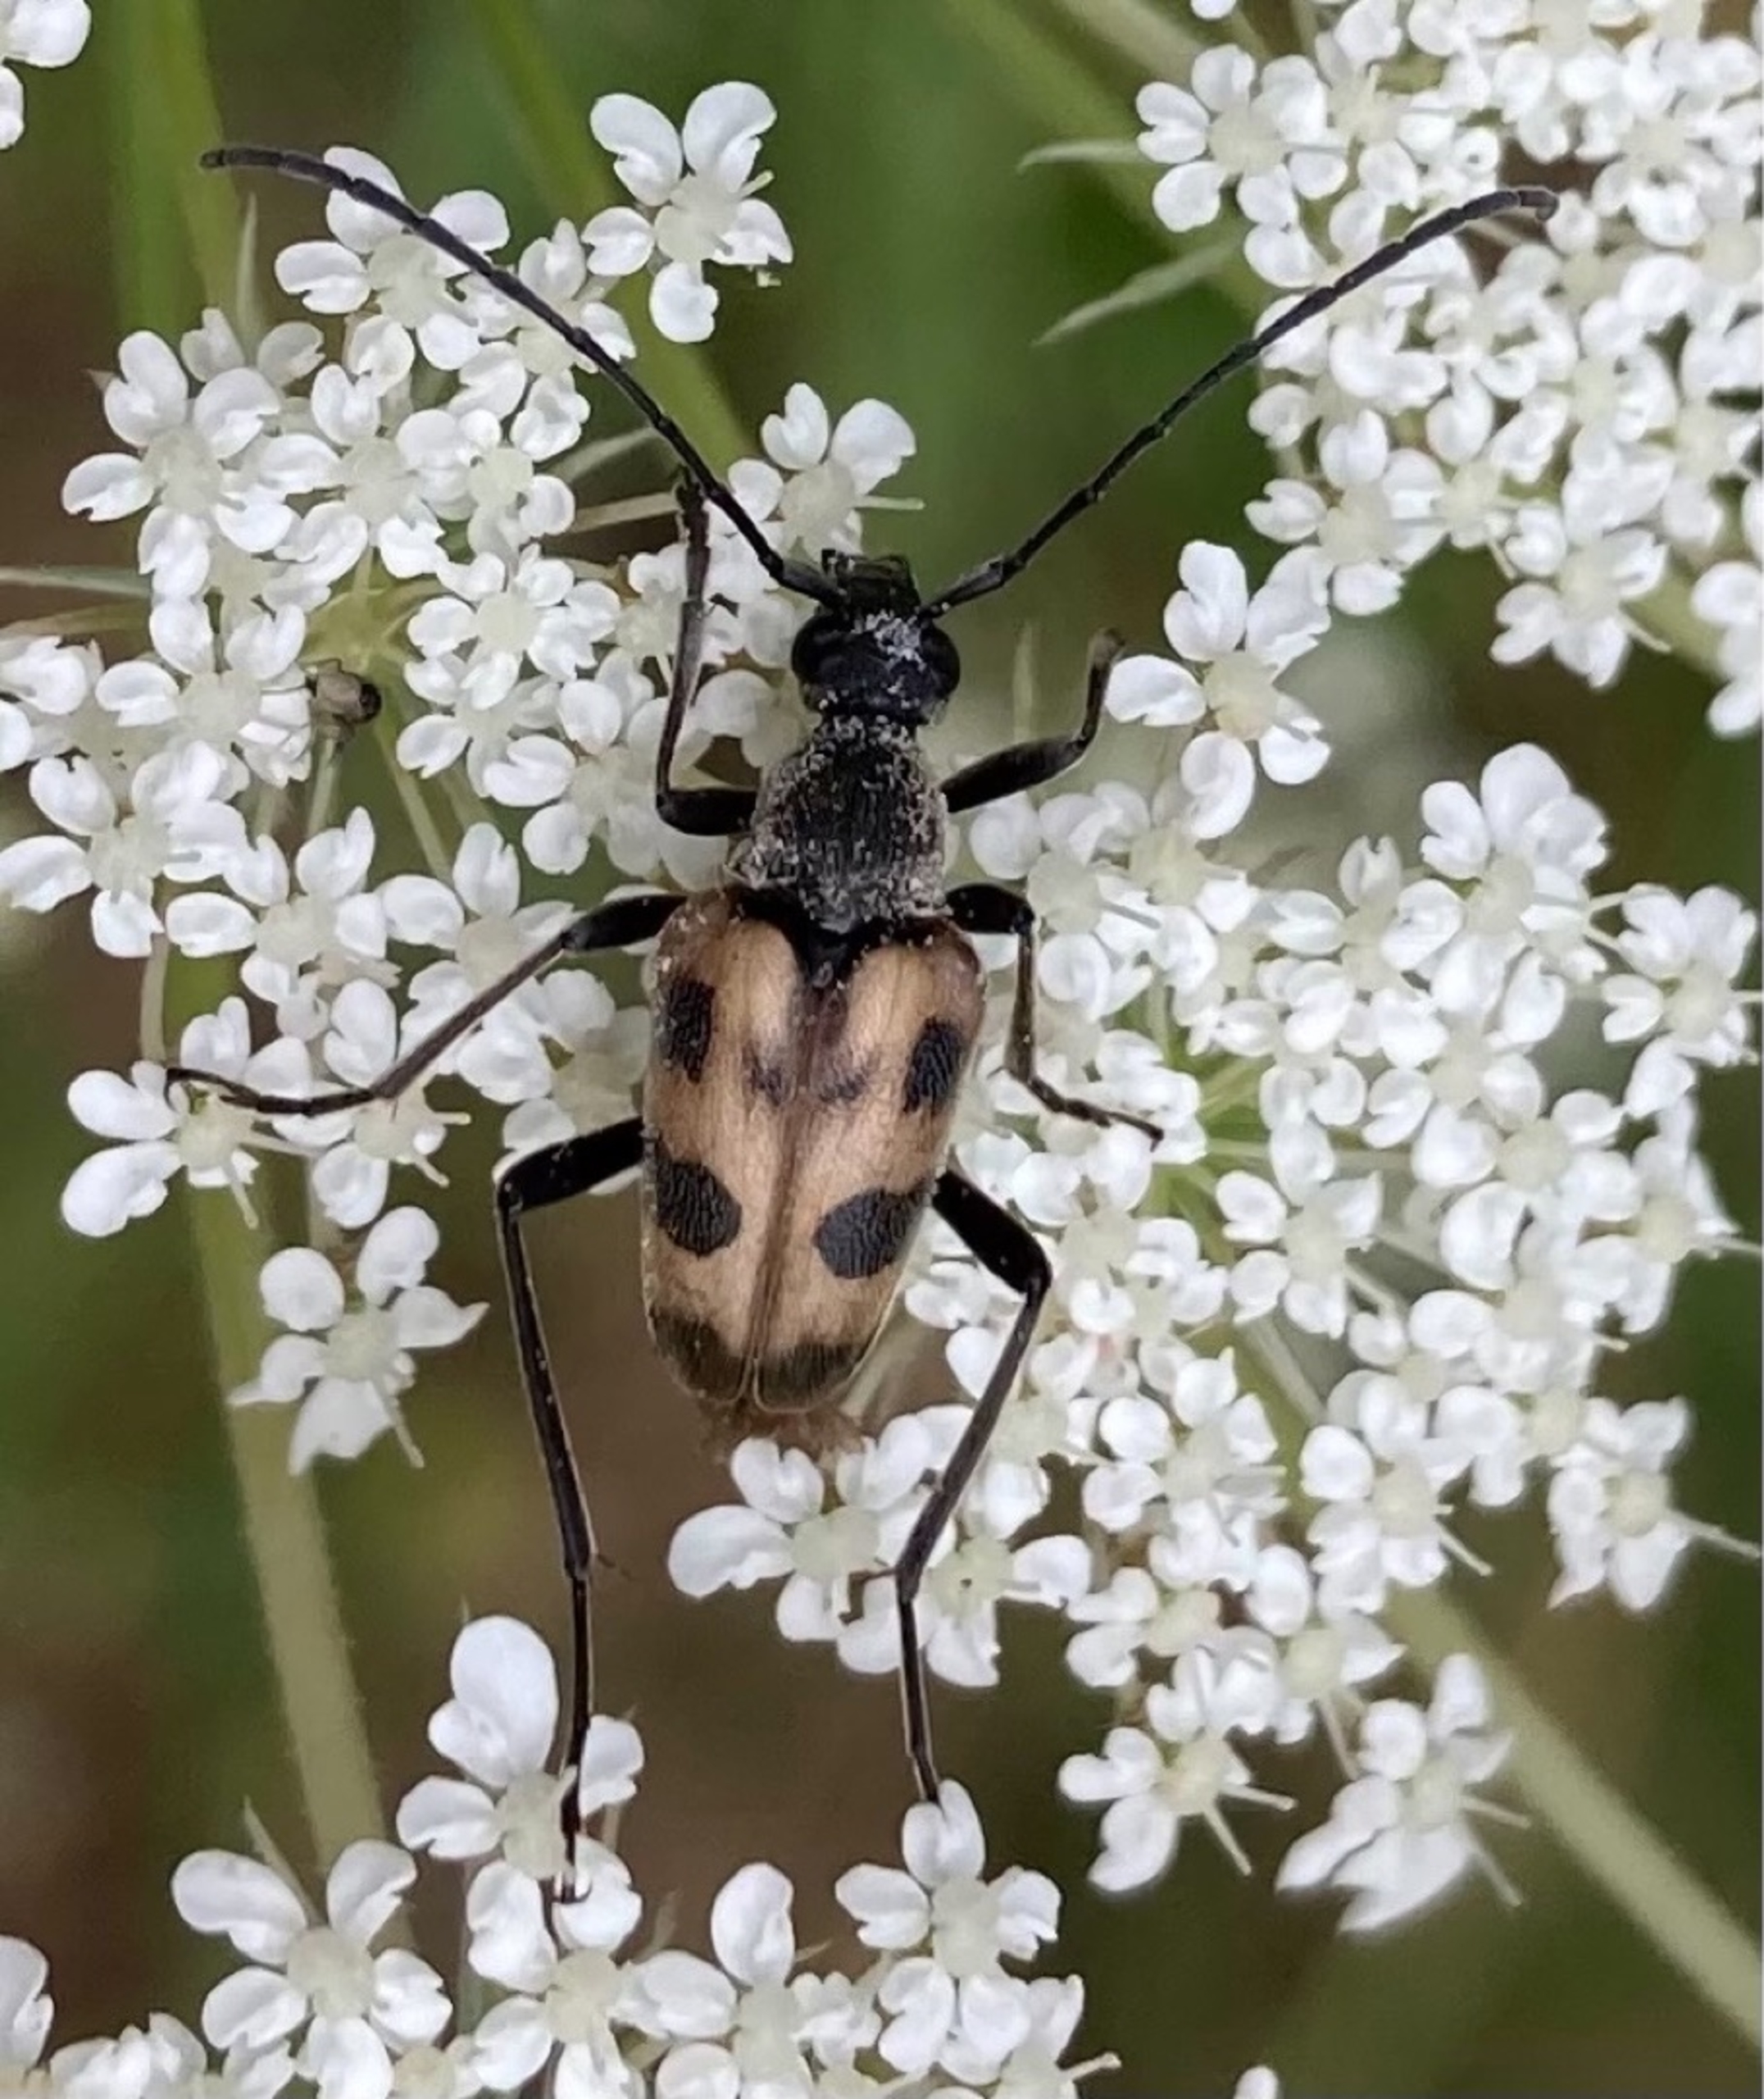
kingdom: Animalia
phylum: Arthropoda
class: Insecta
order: Coleoptera
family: Cerambycidae
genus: Pachytodes
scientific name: Pachytodes cerambyciformis
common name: Jysk blomsterbuk
